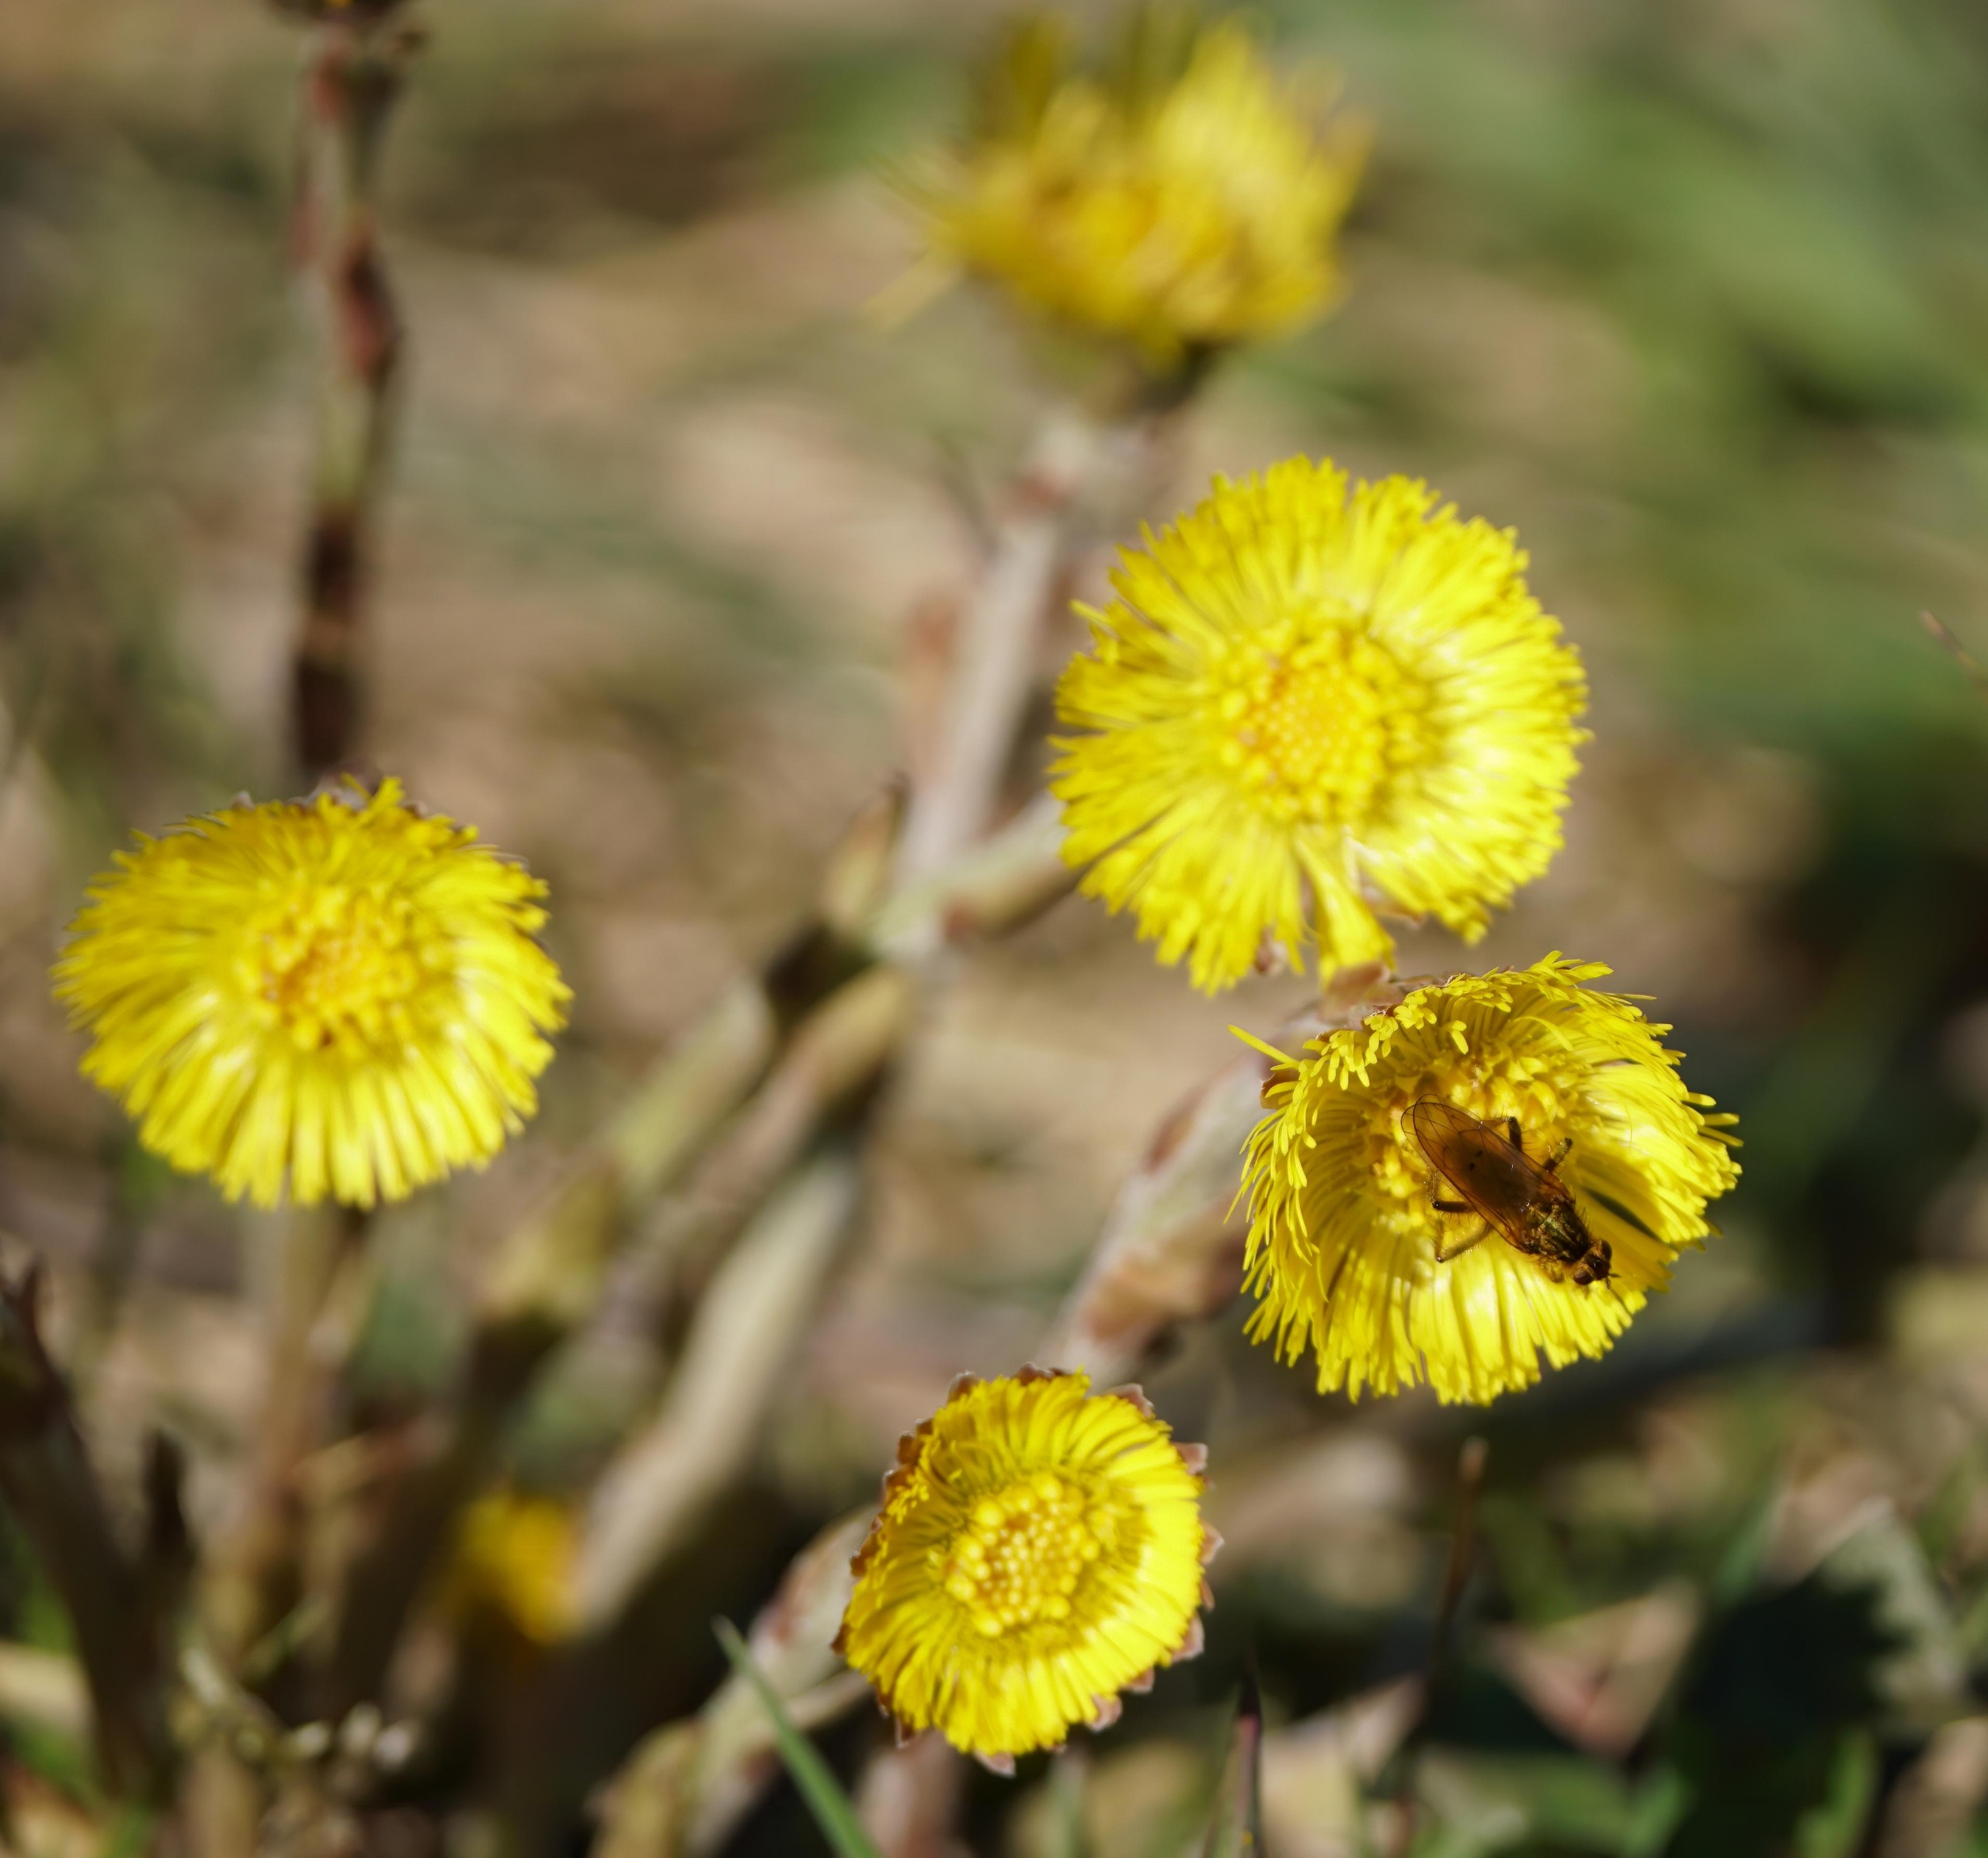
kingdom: Plantae
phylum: Tracheophyta
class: Magnoliopsida
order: Asterales
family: Asteraceae
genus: Tussilago
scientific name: Tussilago farfara
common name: Følfod
